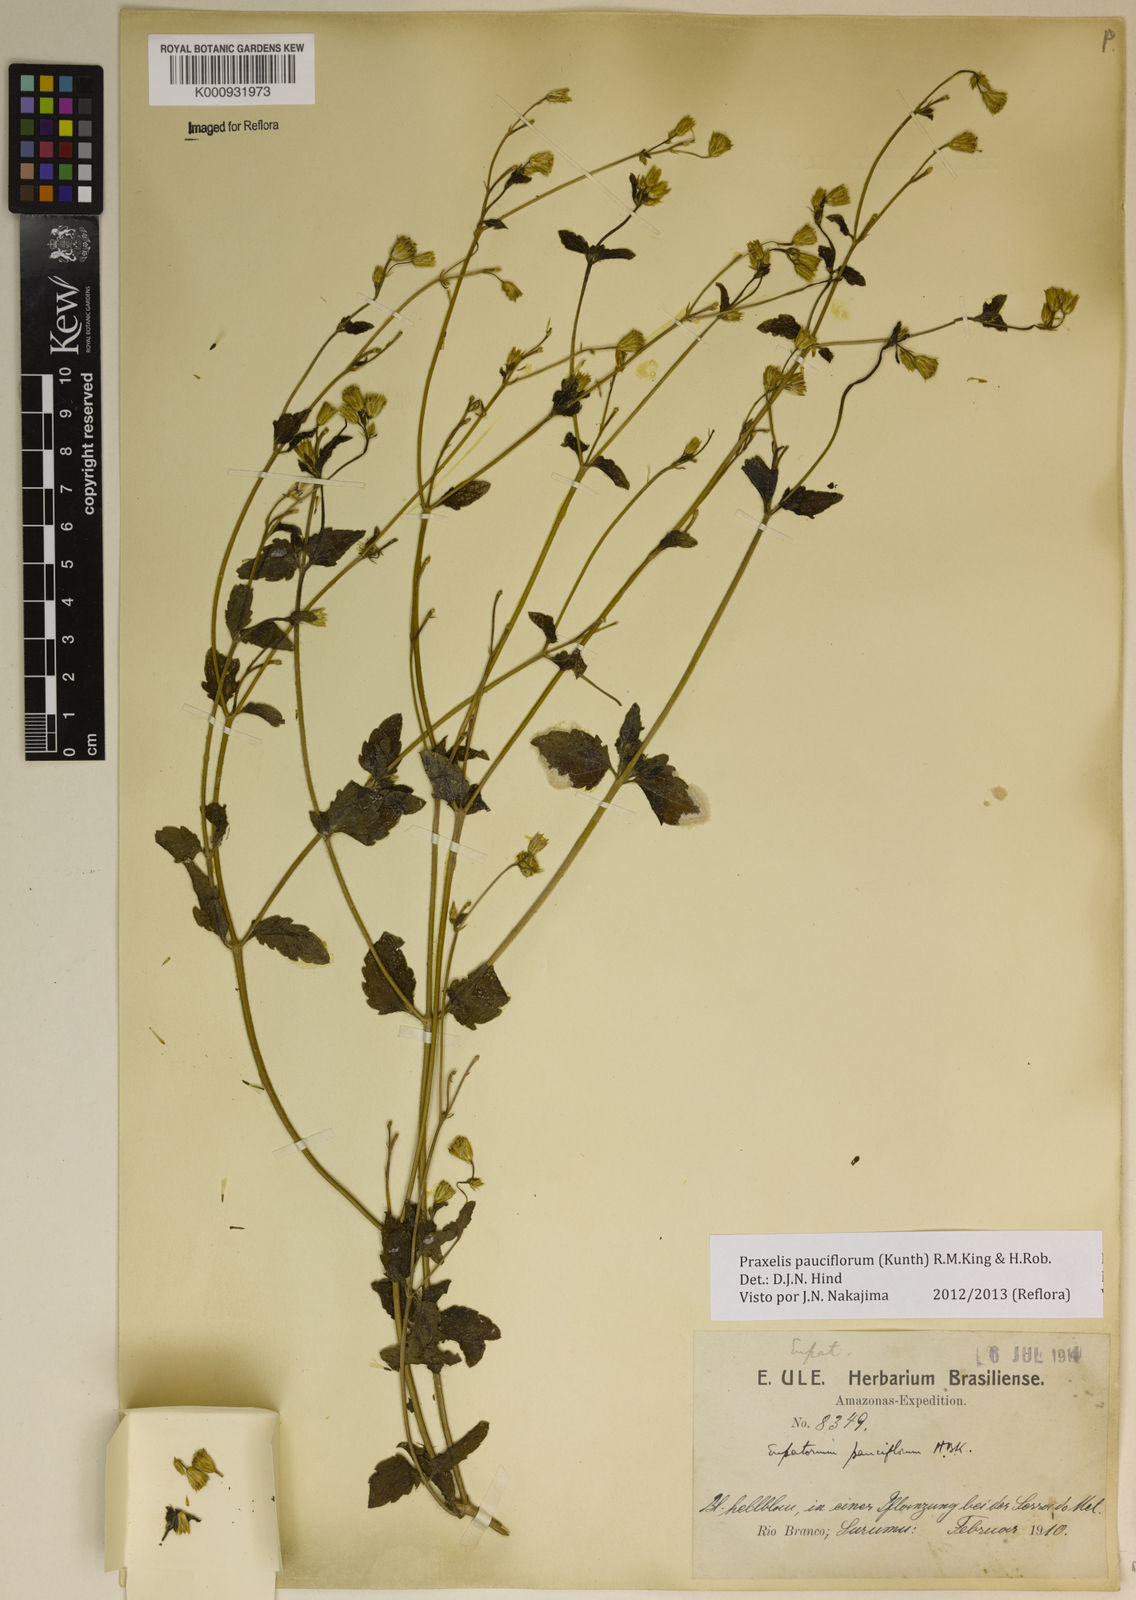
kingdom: Plantae
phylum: Tracheophyta
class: Magnoliopsida
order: Asterales
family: Asteraceae
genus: Praxelis
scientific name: Praxelis diffusa
